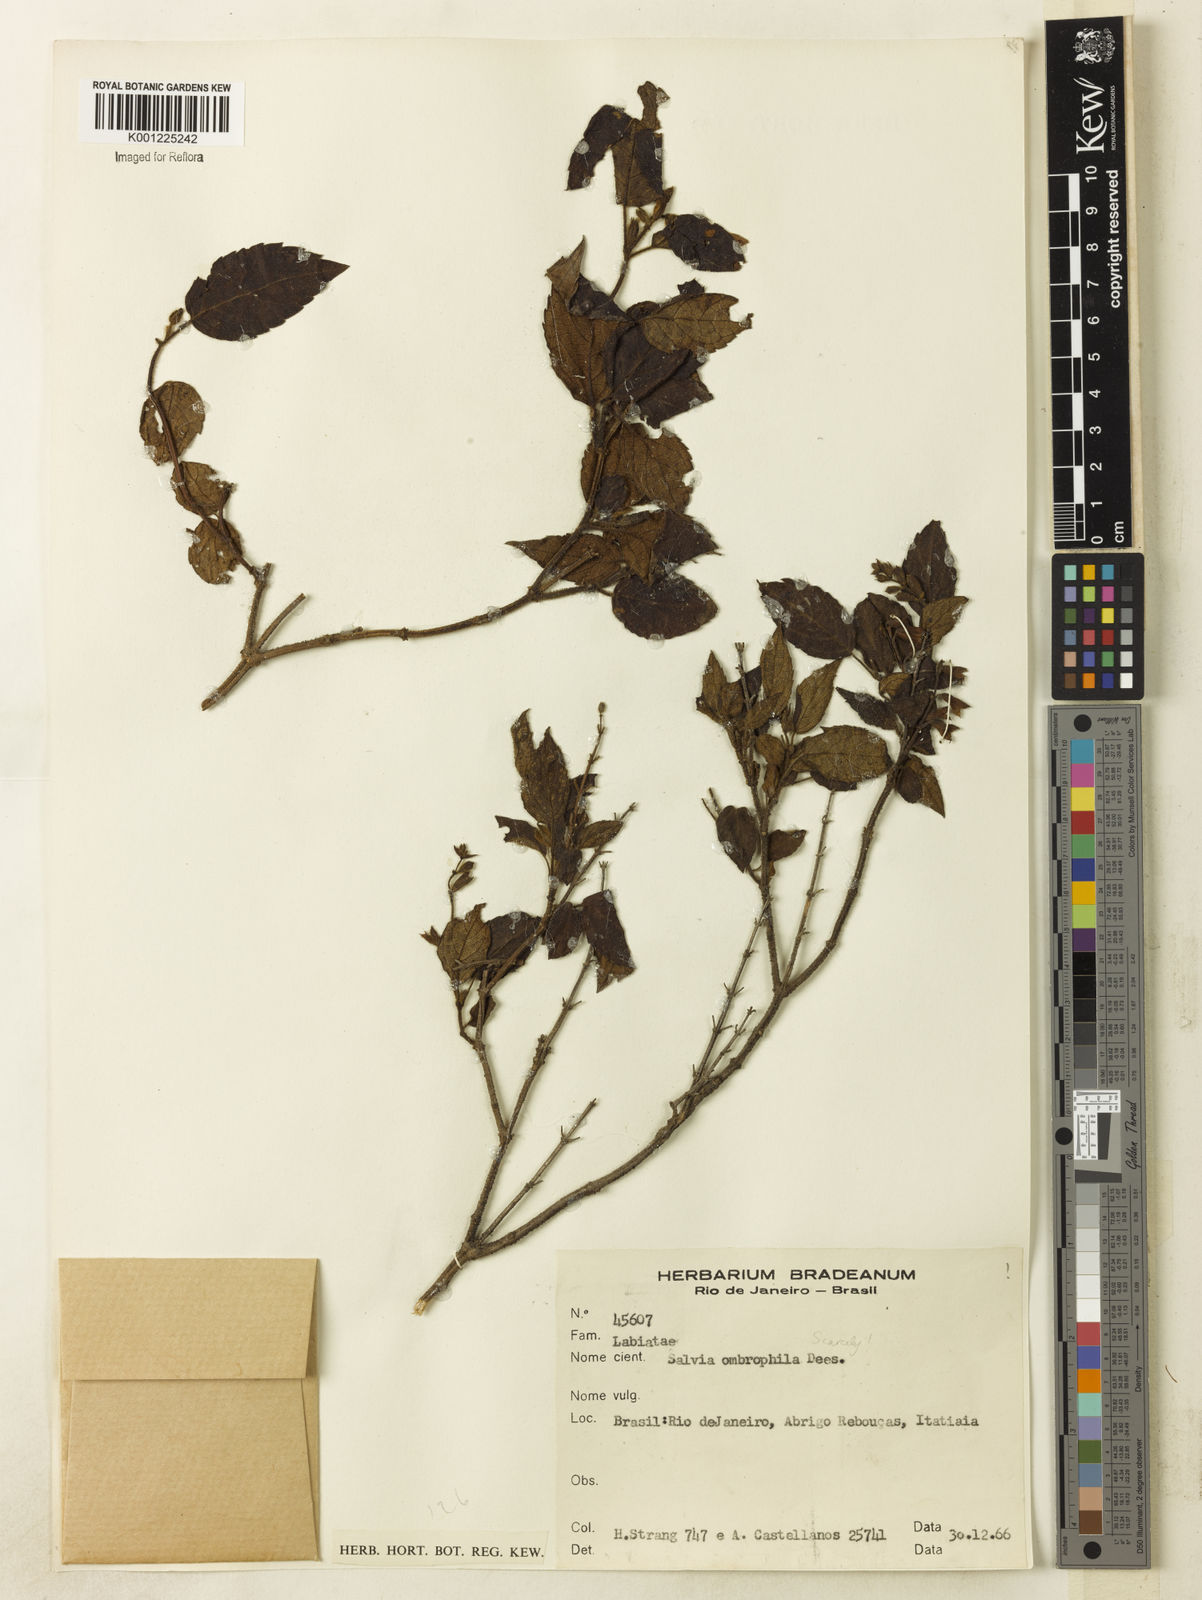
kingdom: Plantae
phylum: Tracheophyta
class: Magnoliopsida
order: Lamiales
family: Lamiaceae
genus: Salvia
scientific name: Salvia
